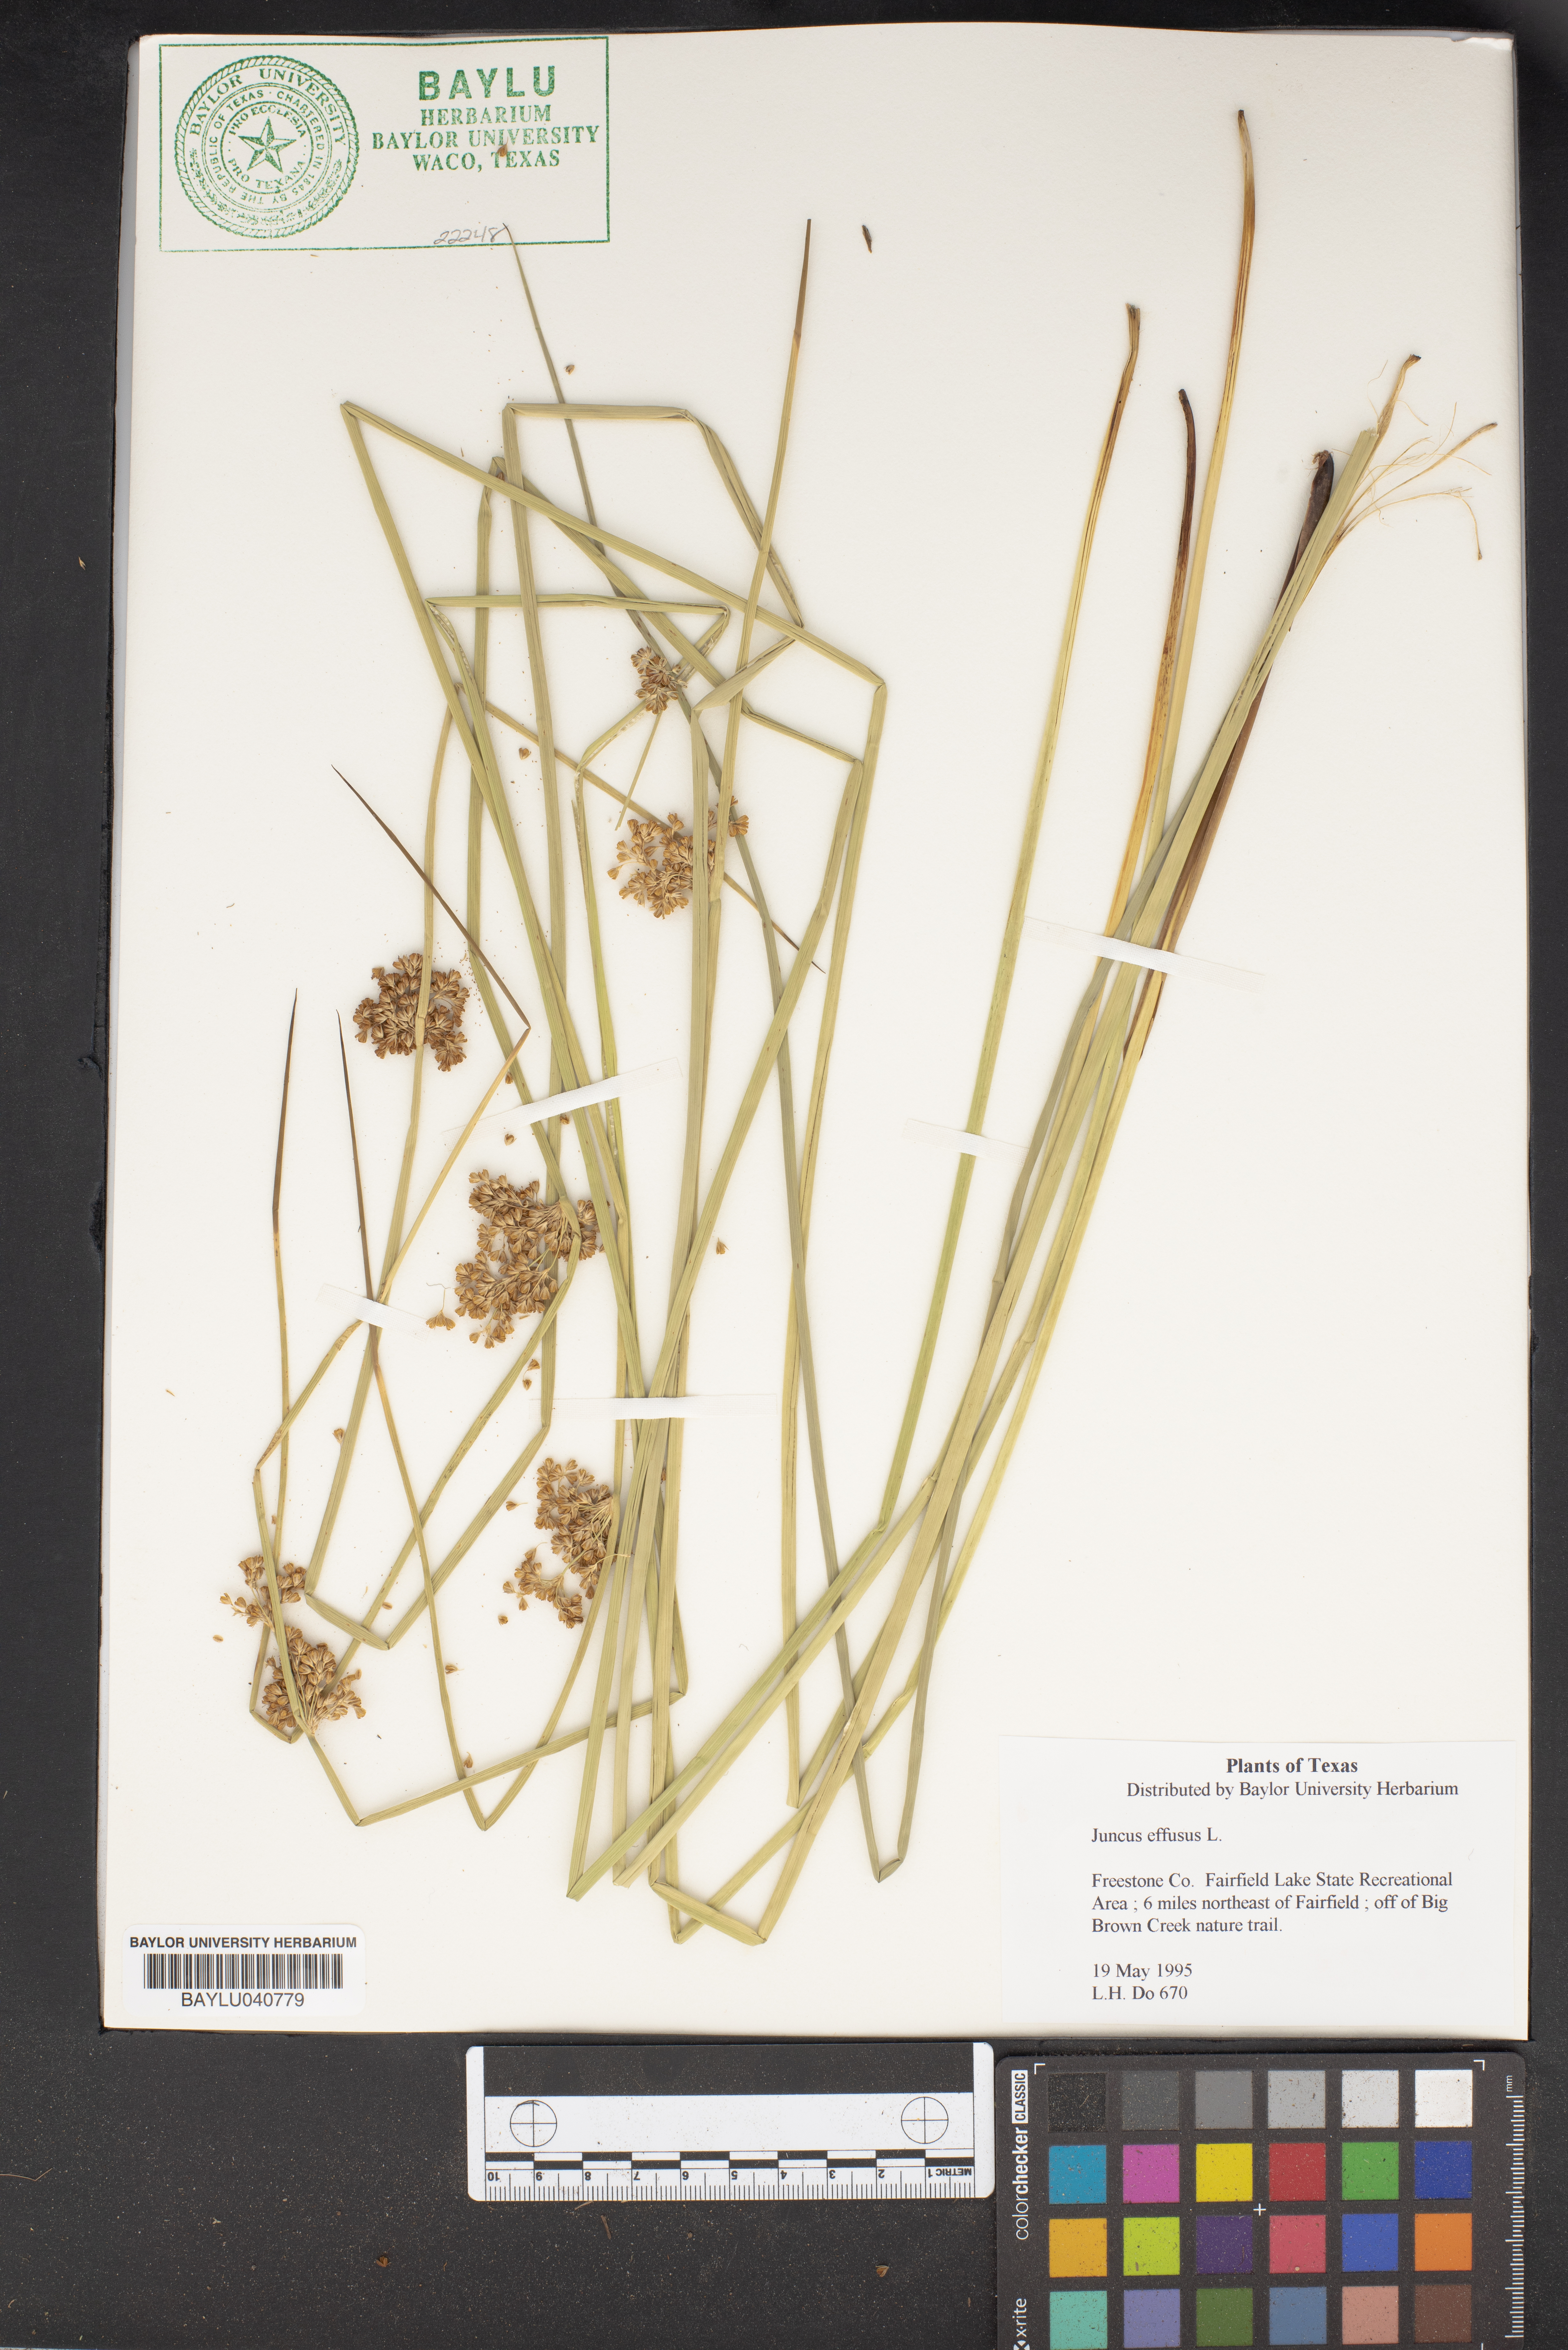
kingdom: Plantae
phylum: Tracheophyta
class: Liliopsida
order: Poales
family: Juncaceae
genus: Juncus
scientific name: Juncus effusus
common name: Soft rush
